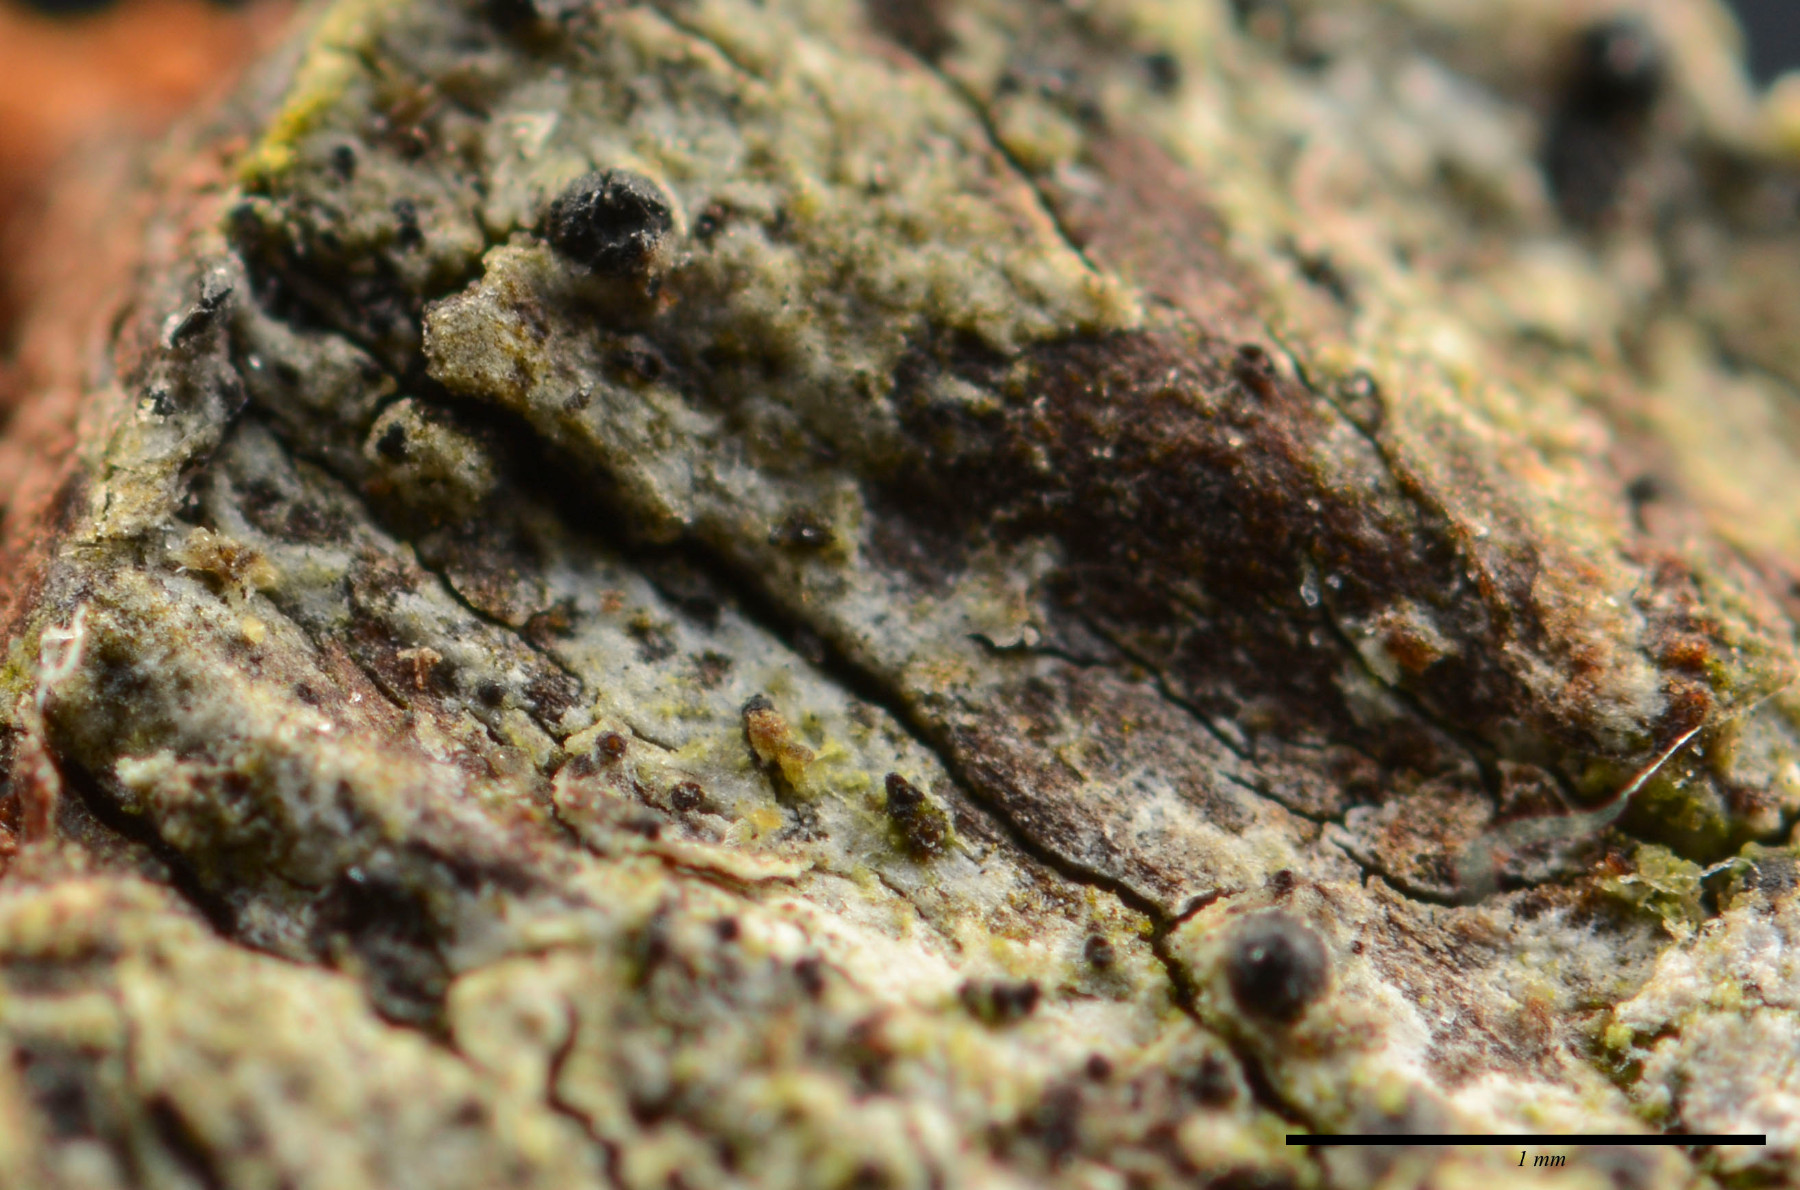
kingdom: Fungi
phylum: Ascomycota
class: Dothideomycetes
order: Monoblastiales
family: Monoblastiaceae
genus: Anisomeridium
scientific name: Anisomeridium polypori
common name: sprække-punktlav
